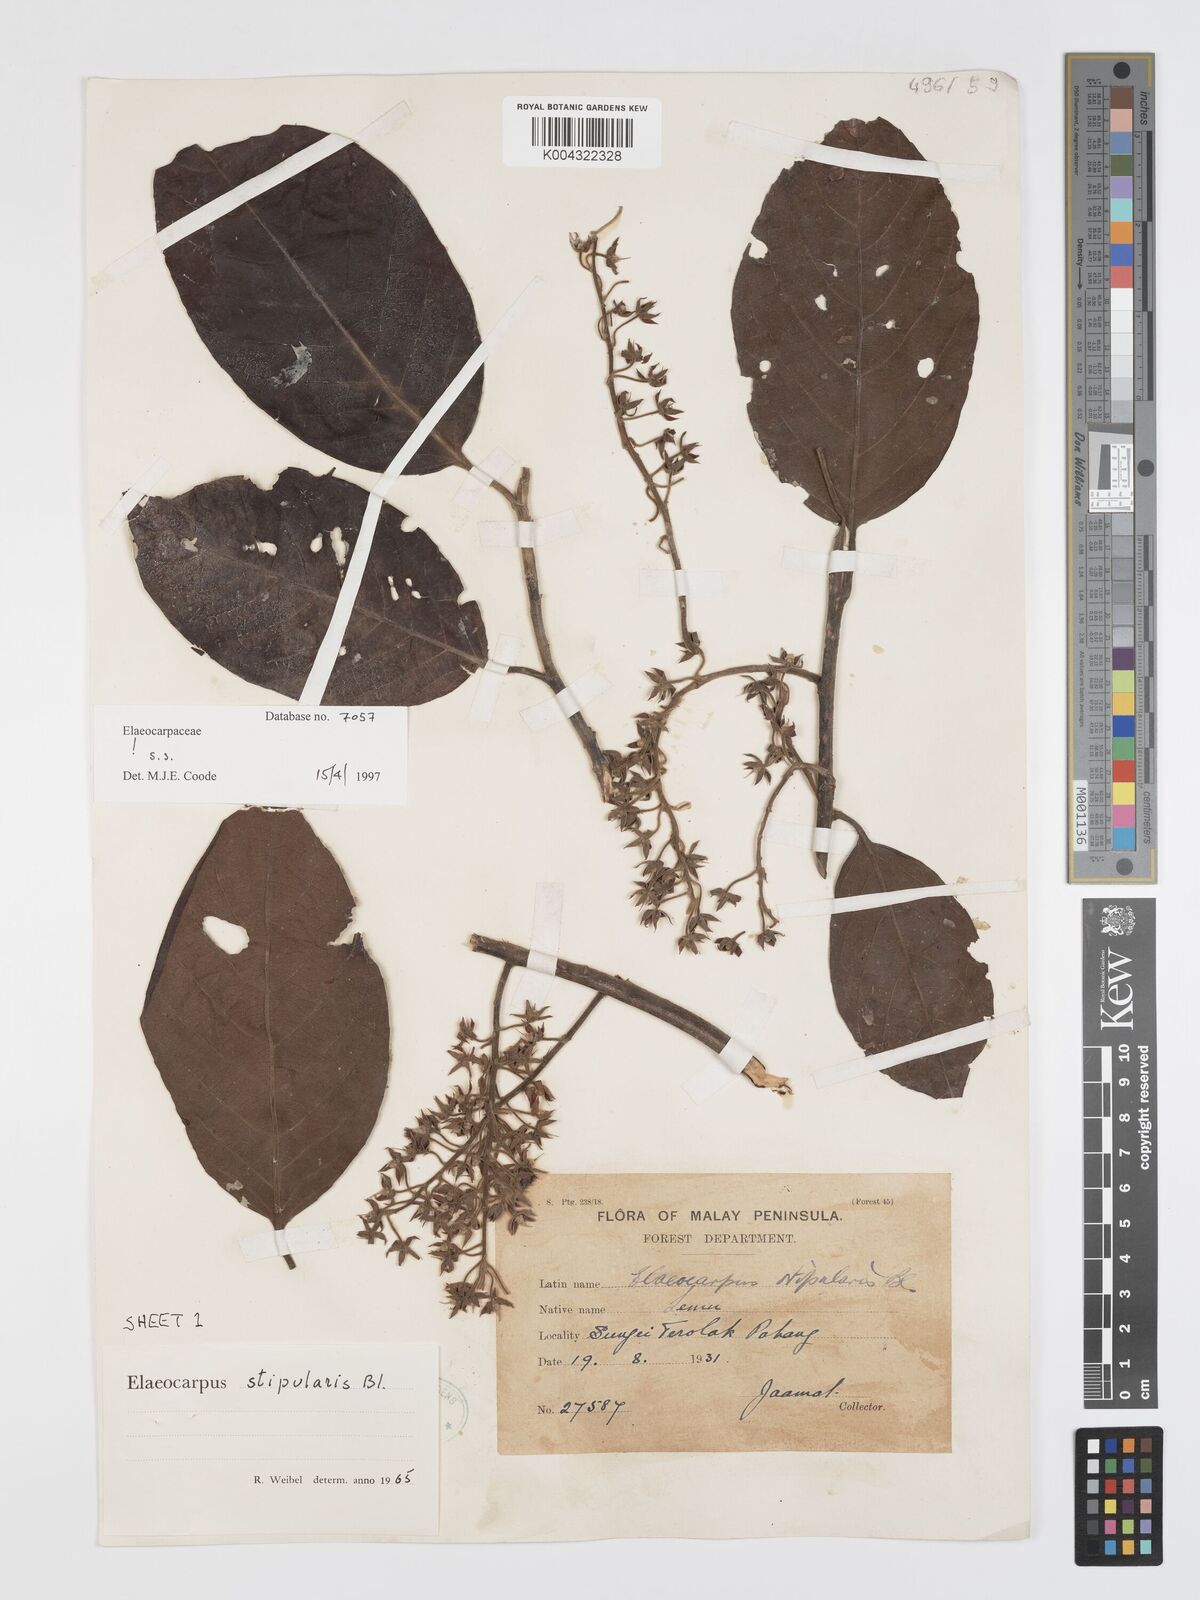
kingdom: Plantae
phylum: Tracheophyta
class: Magnoliopsida
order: Oxalidales
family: Elaeocarpaceae
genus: Elaeocarpus
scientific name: Elaeocarpus stipularis
